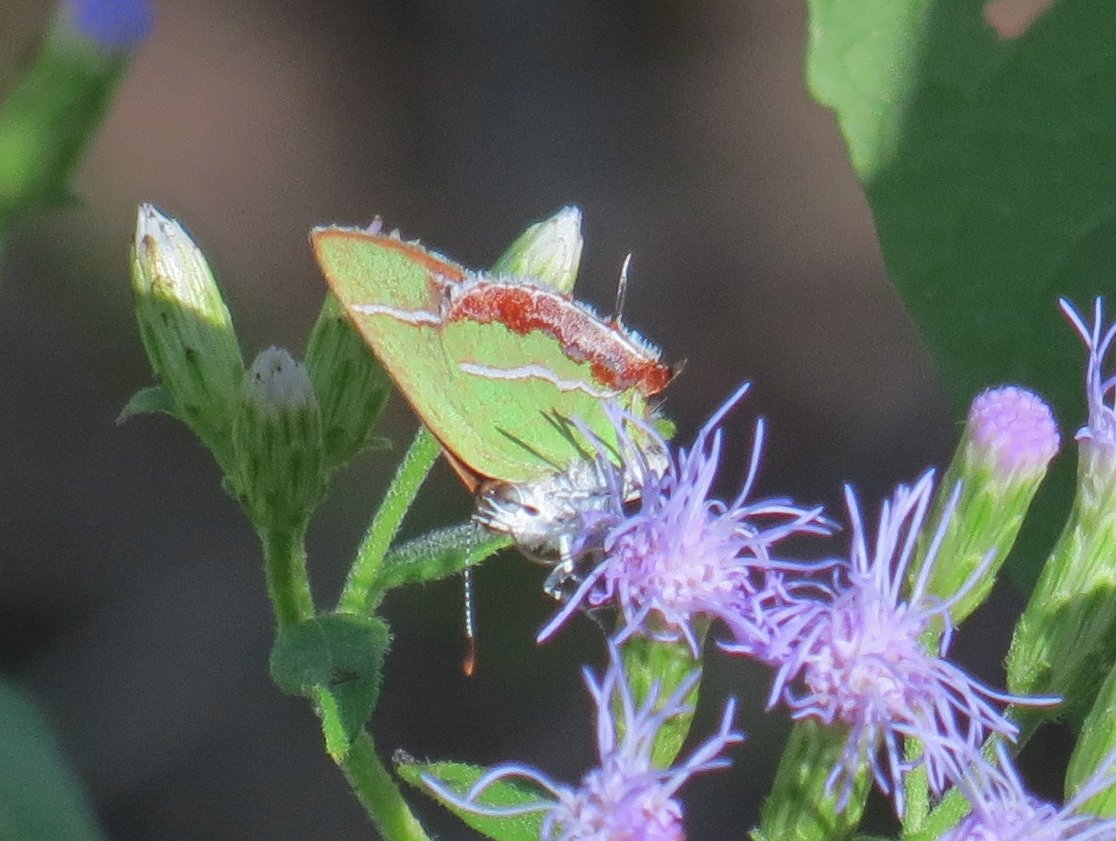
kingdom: Animalia
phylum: Arthropoda
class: Insecta
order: Lepidoptera
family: Lycaenidae
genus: Chlorostrymon
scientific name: Chlorostrymon simaethis
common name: Silver-banded Hairstreak
